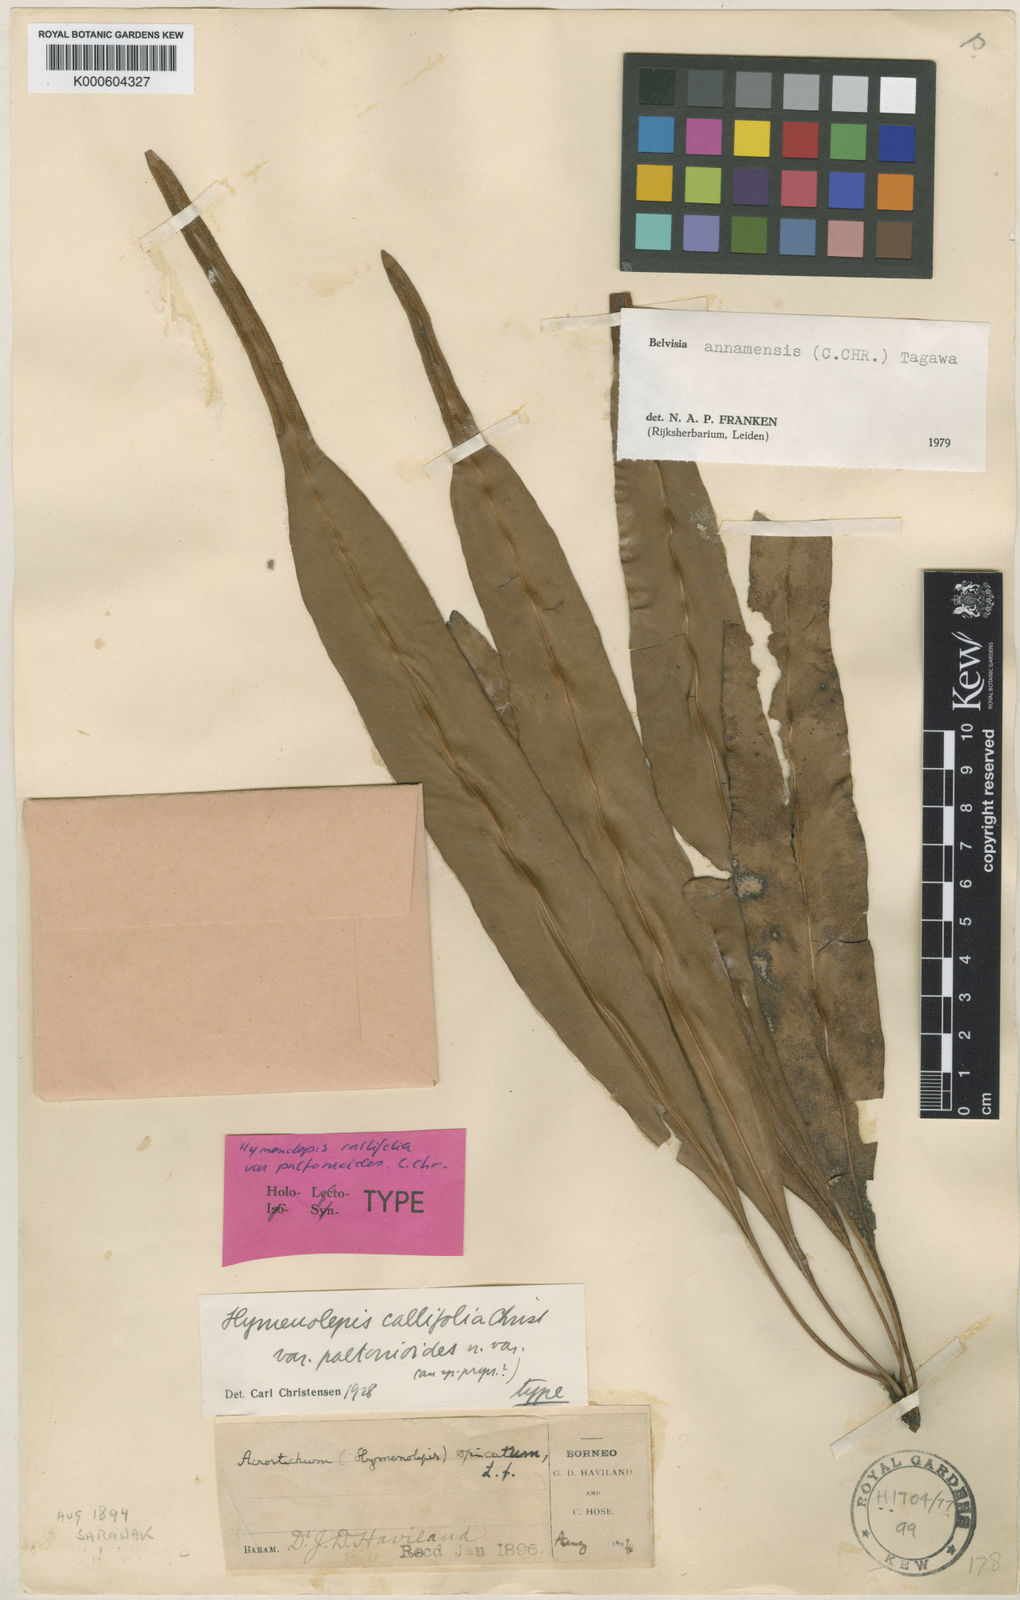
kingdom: Plantae
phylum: Tracheophyta
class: Polypodiopsida
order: Polypodiales
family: Polypodiaceae
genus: Lepisorus
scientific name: Lepisorus annamensis
